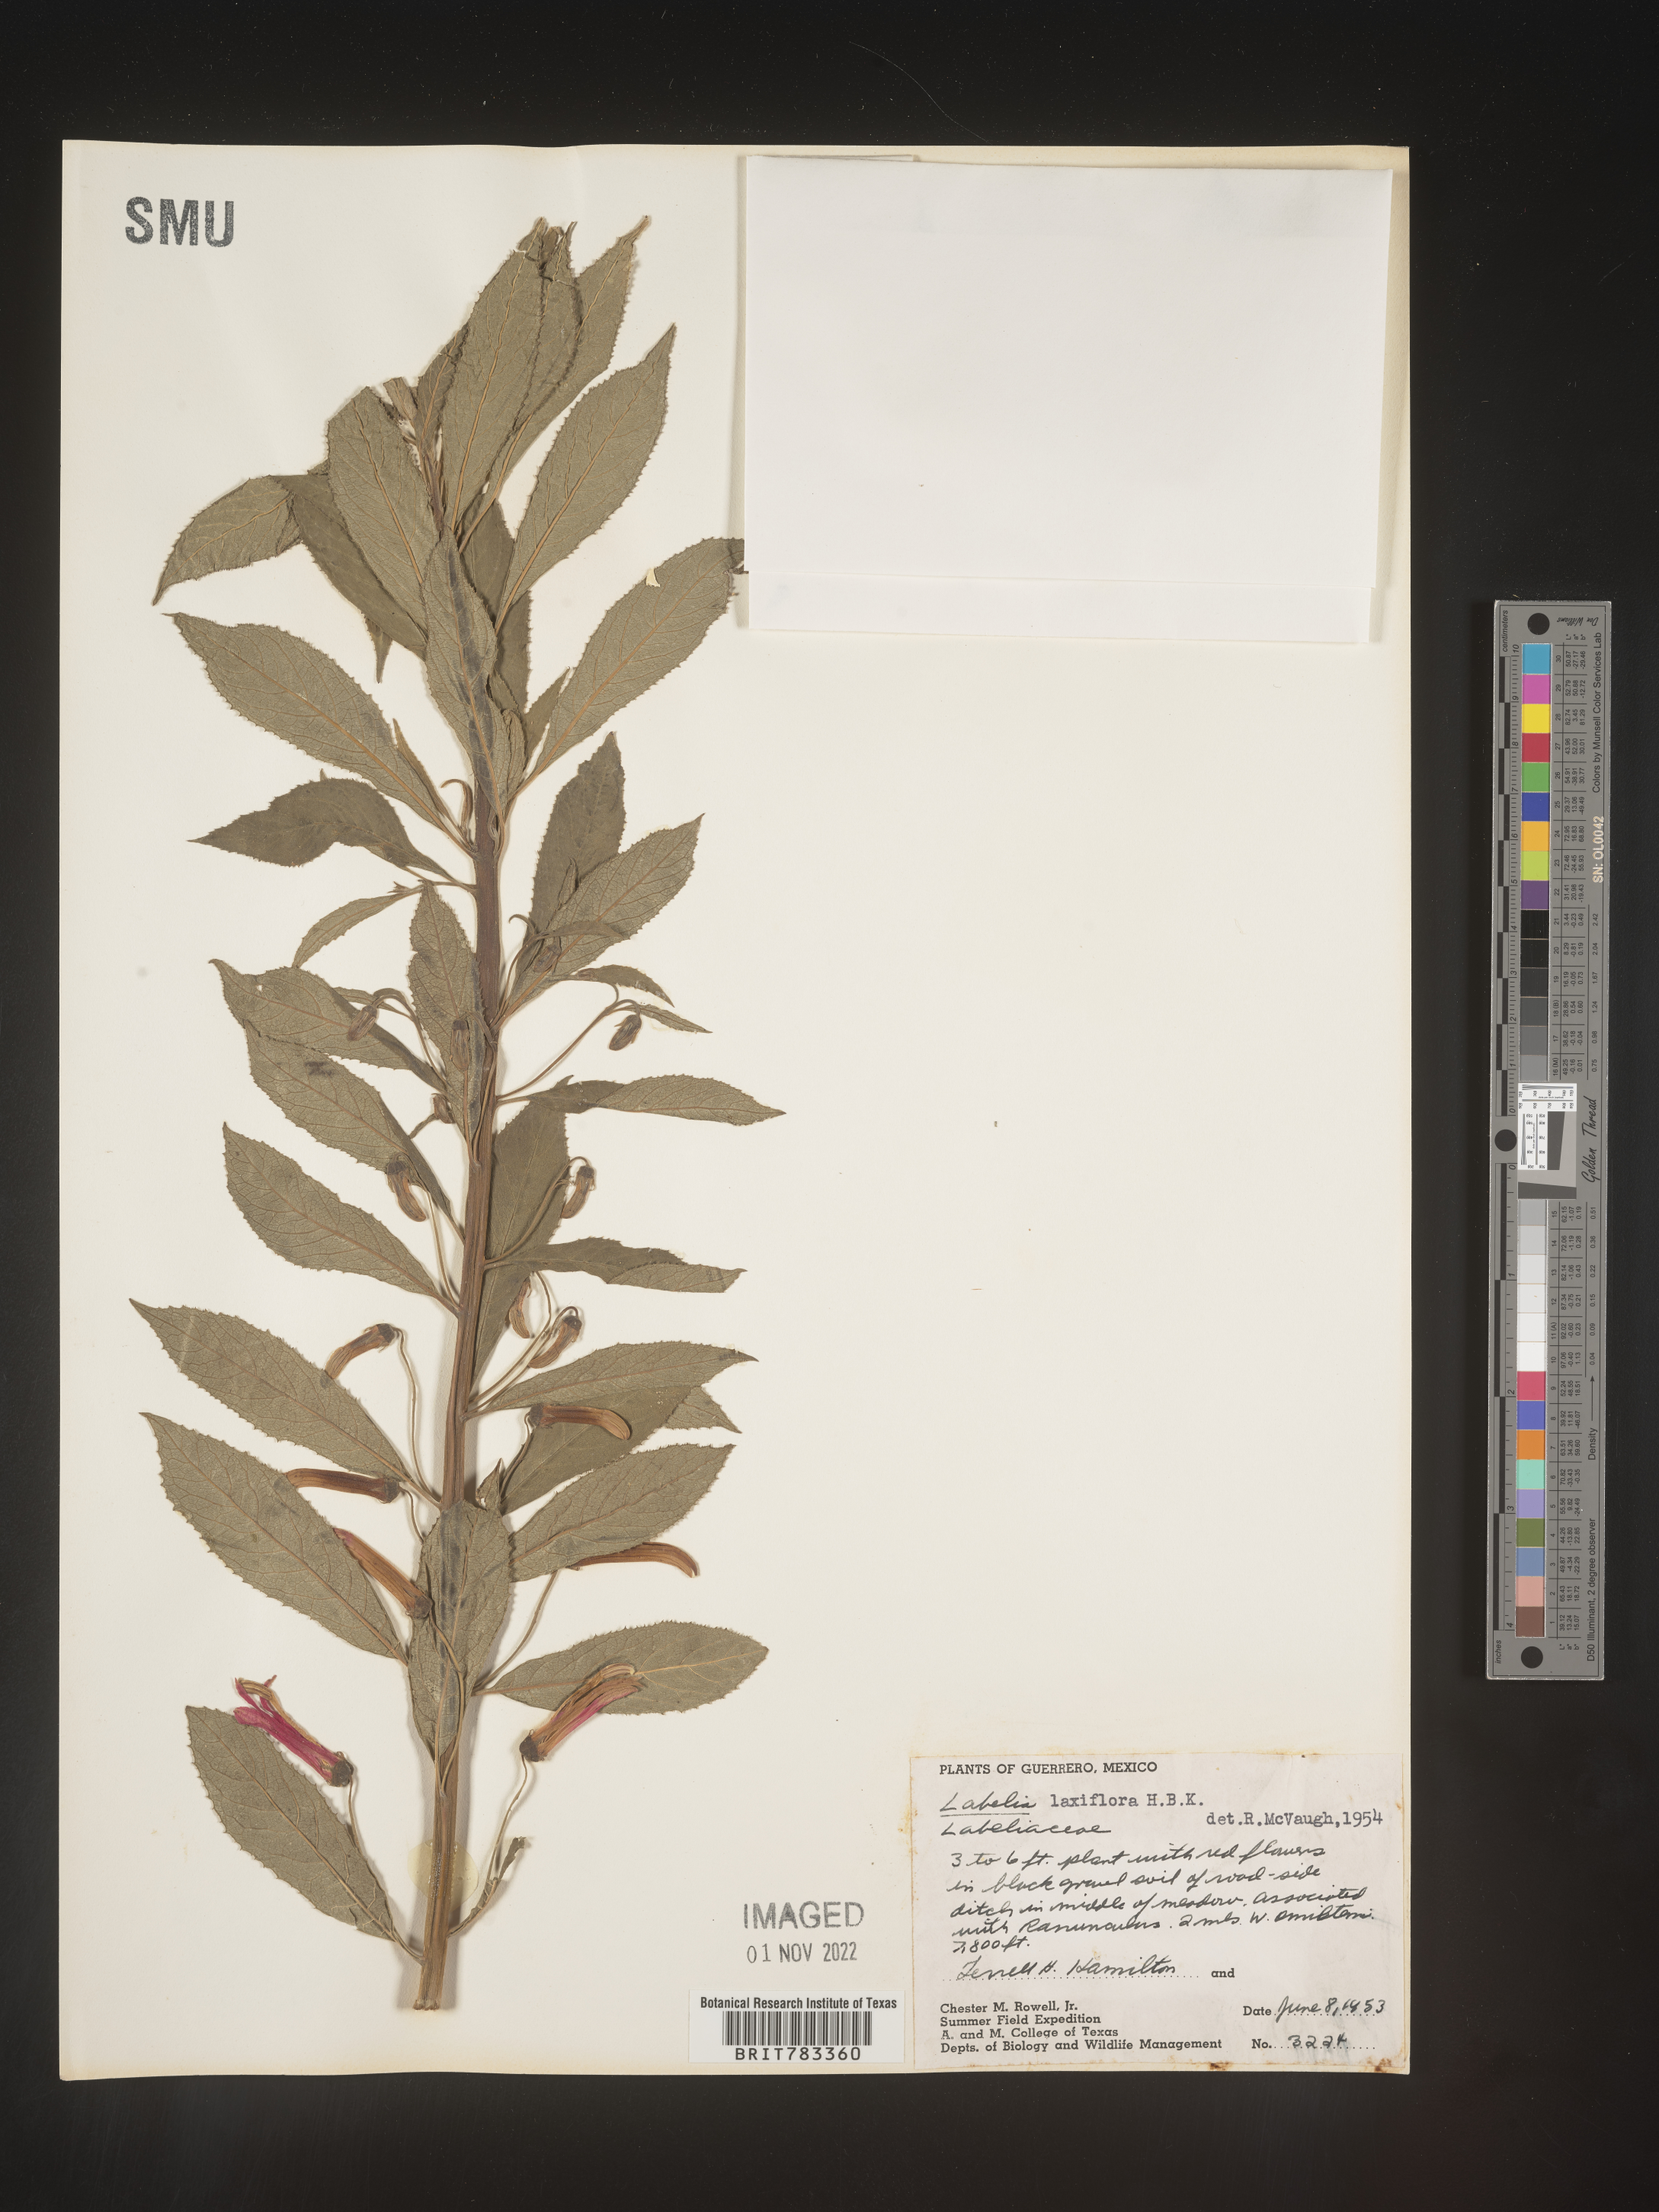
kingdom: Plantae
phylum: Tracheophyta
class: Magnoliopsida
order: Asterales
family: Campanulaceae
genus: Lobelia
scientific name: Lobelia
